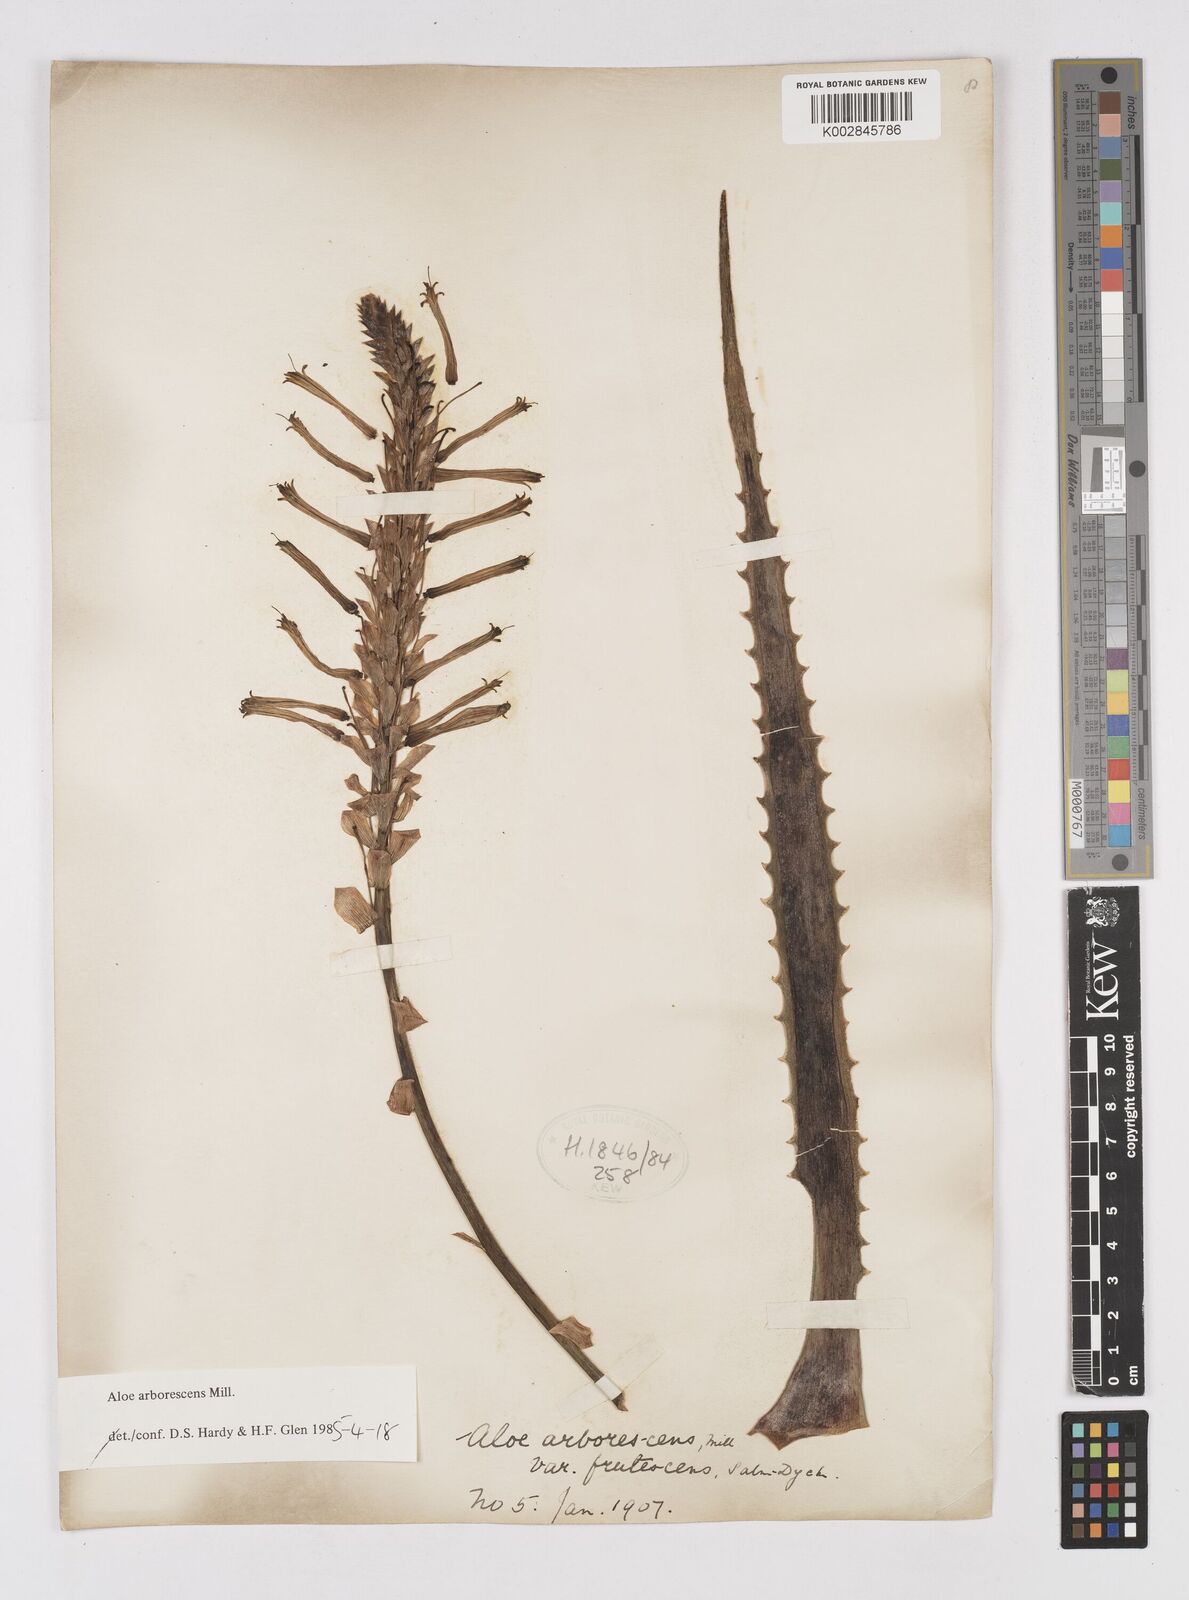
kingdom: Plantae
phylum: Tracheophyta
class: Liliopsida
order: Asparagales
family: Asphodelaceae
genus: Aloe
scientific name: Aloe arborescens
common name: Candelabra aloe
